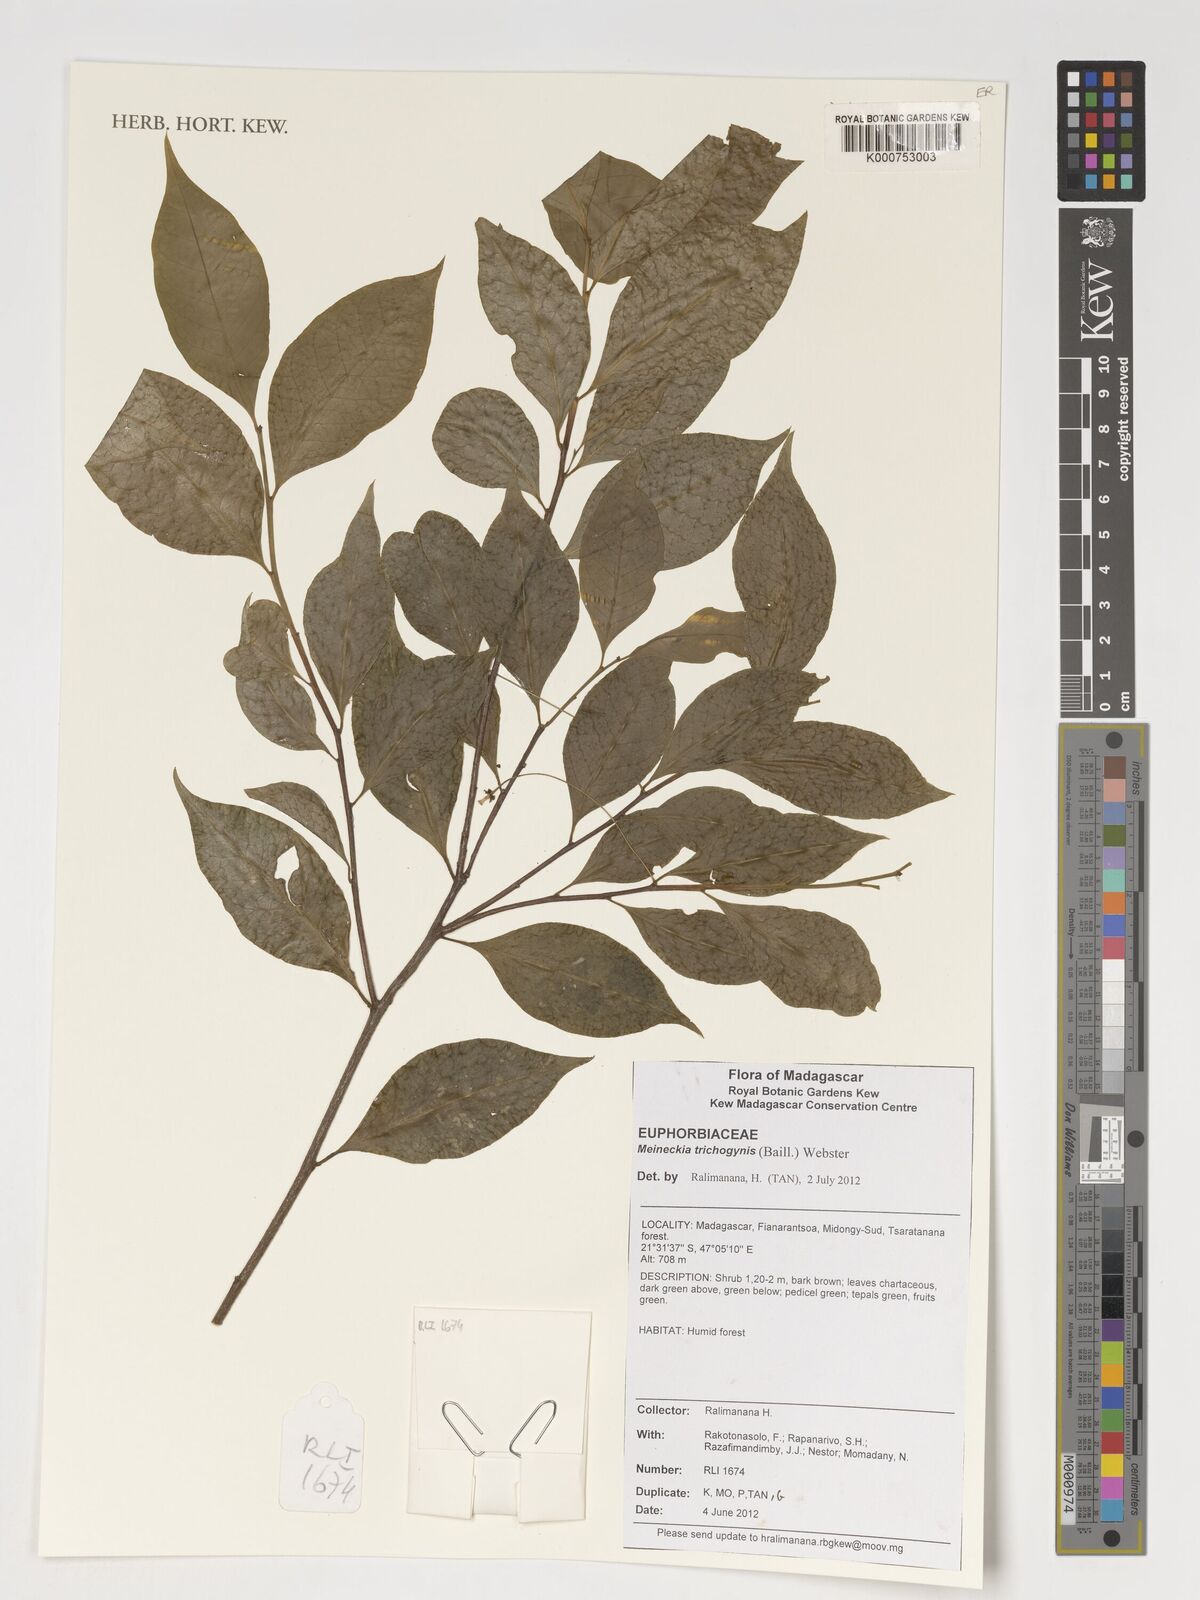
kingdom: Plantae
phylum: Tracheophyta
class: Magnoliopsida
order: Malpighiales
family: Phyllanthaceae
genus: Meineckia
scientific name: Meineckia trichogynis
